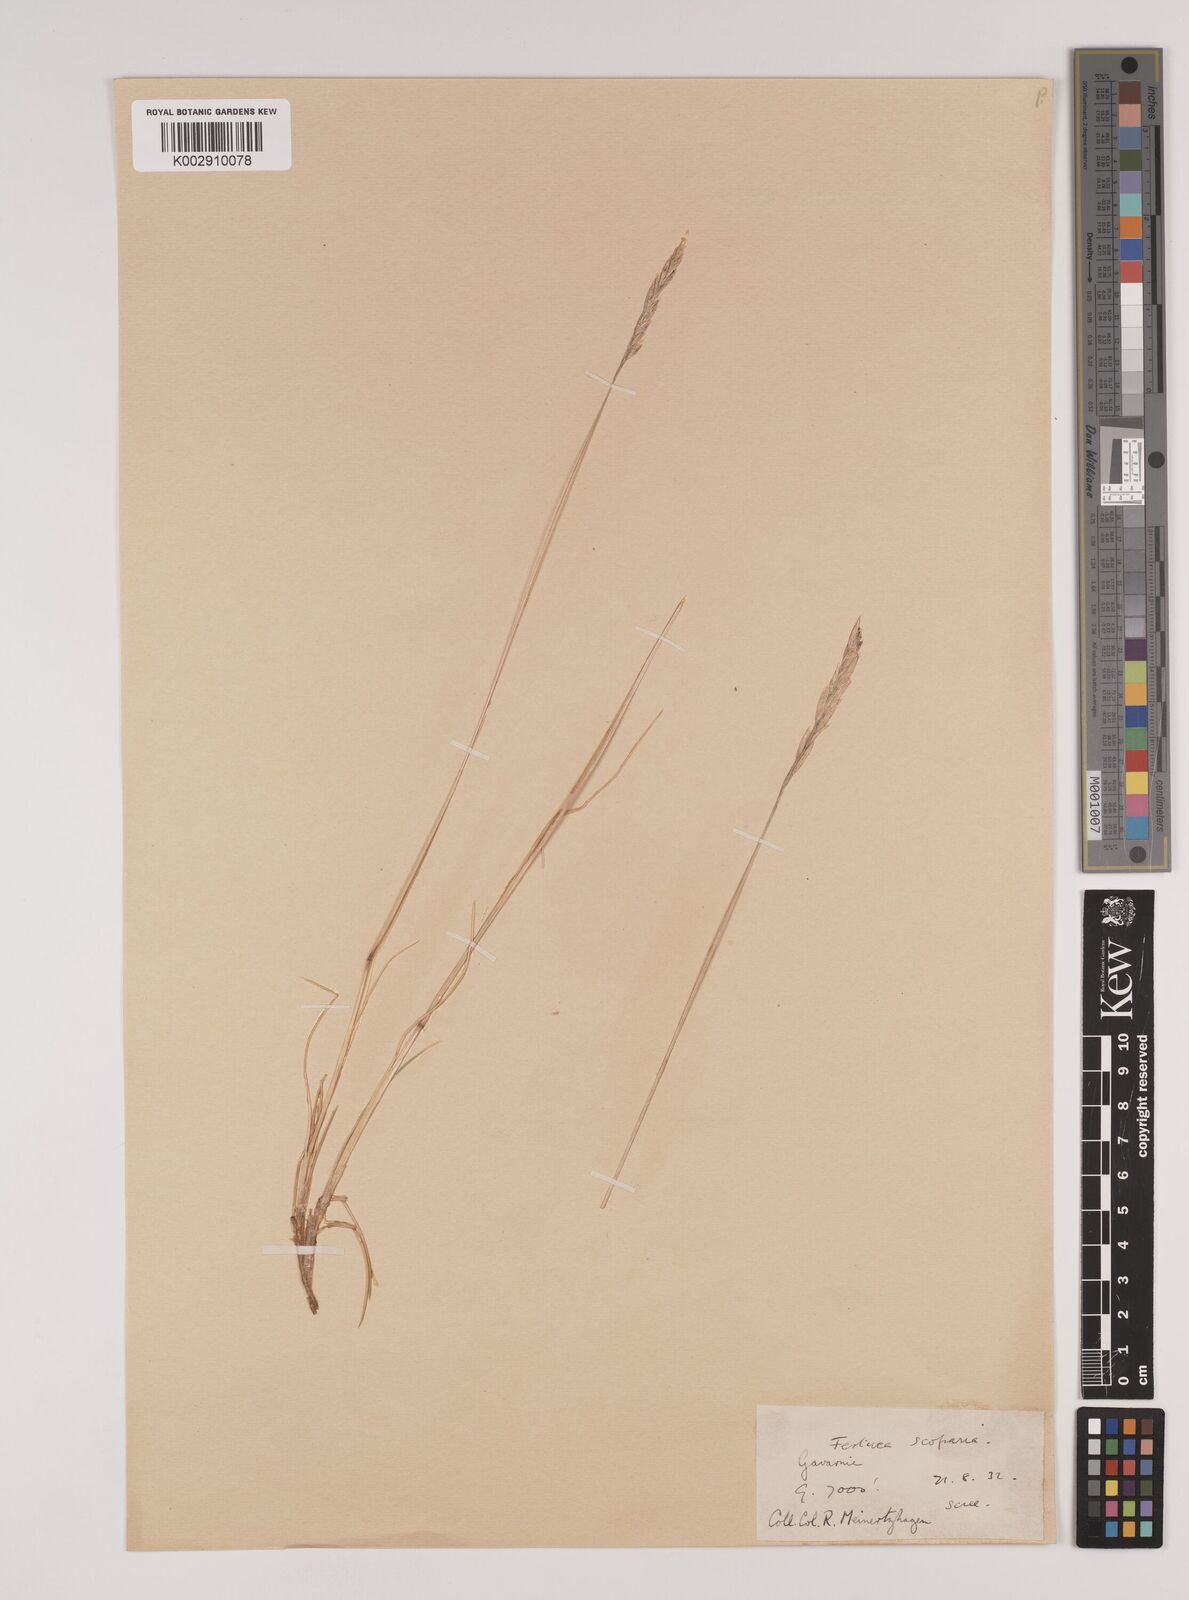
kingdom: Plantae
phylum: Tracheophyta
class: Liliopsida
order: Poales
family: Poaceae
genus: Festuca
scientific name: Festuca flavescens
